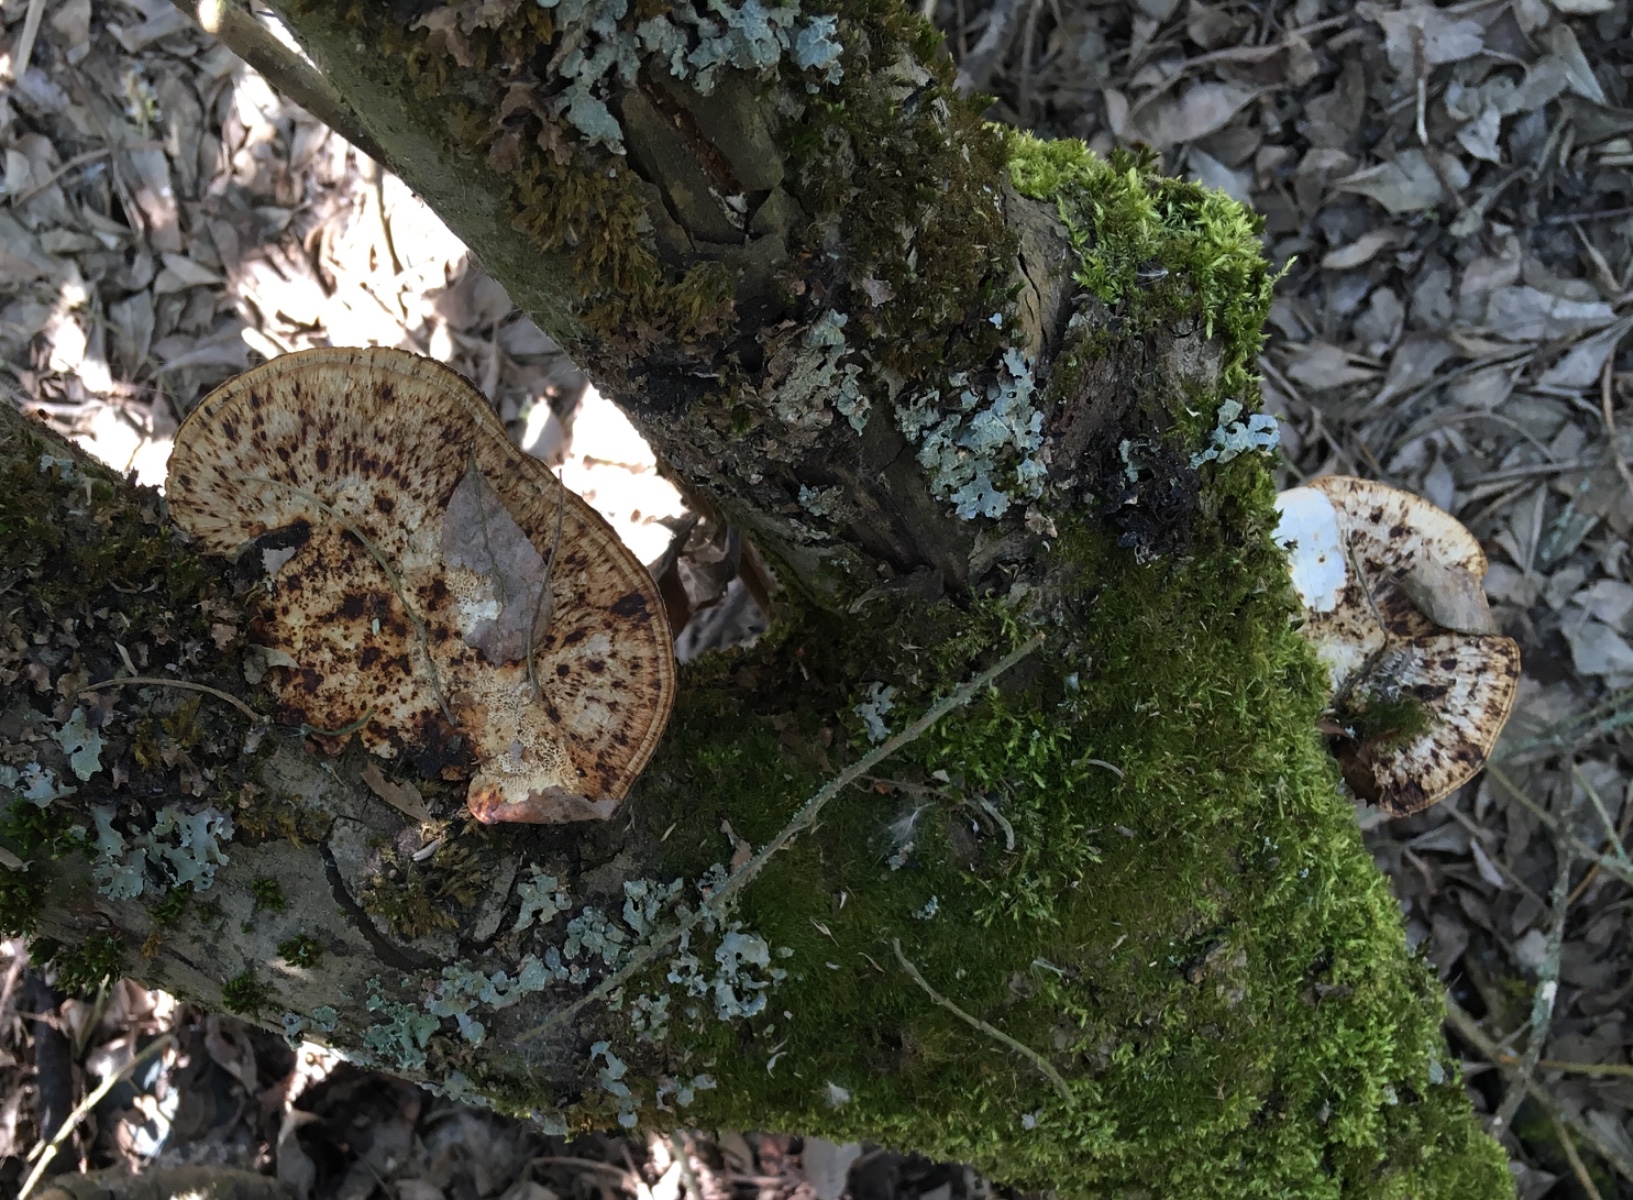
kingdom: Fungi
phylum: Basidiomycota
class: Agaricomycetes
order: Polyporales
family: Polyporaceae
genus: Daedaleopsis
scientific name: Daedaleopsis confragosa
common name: rødmende læderporesvamp
